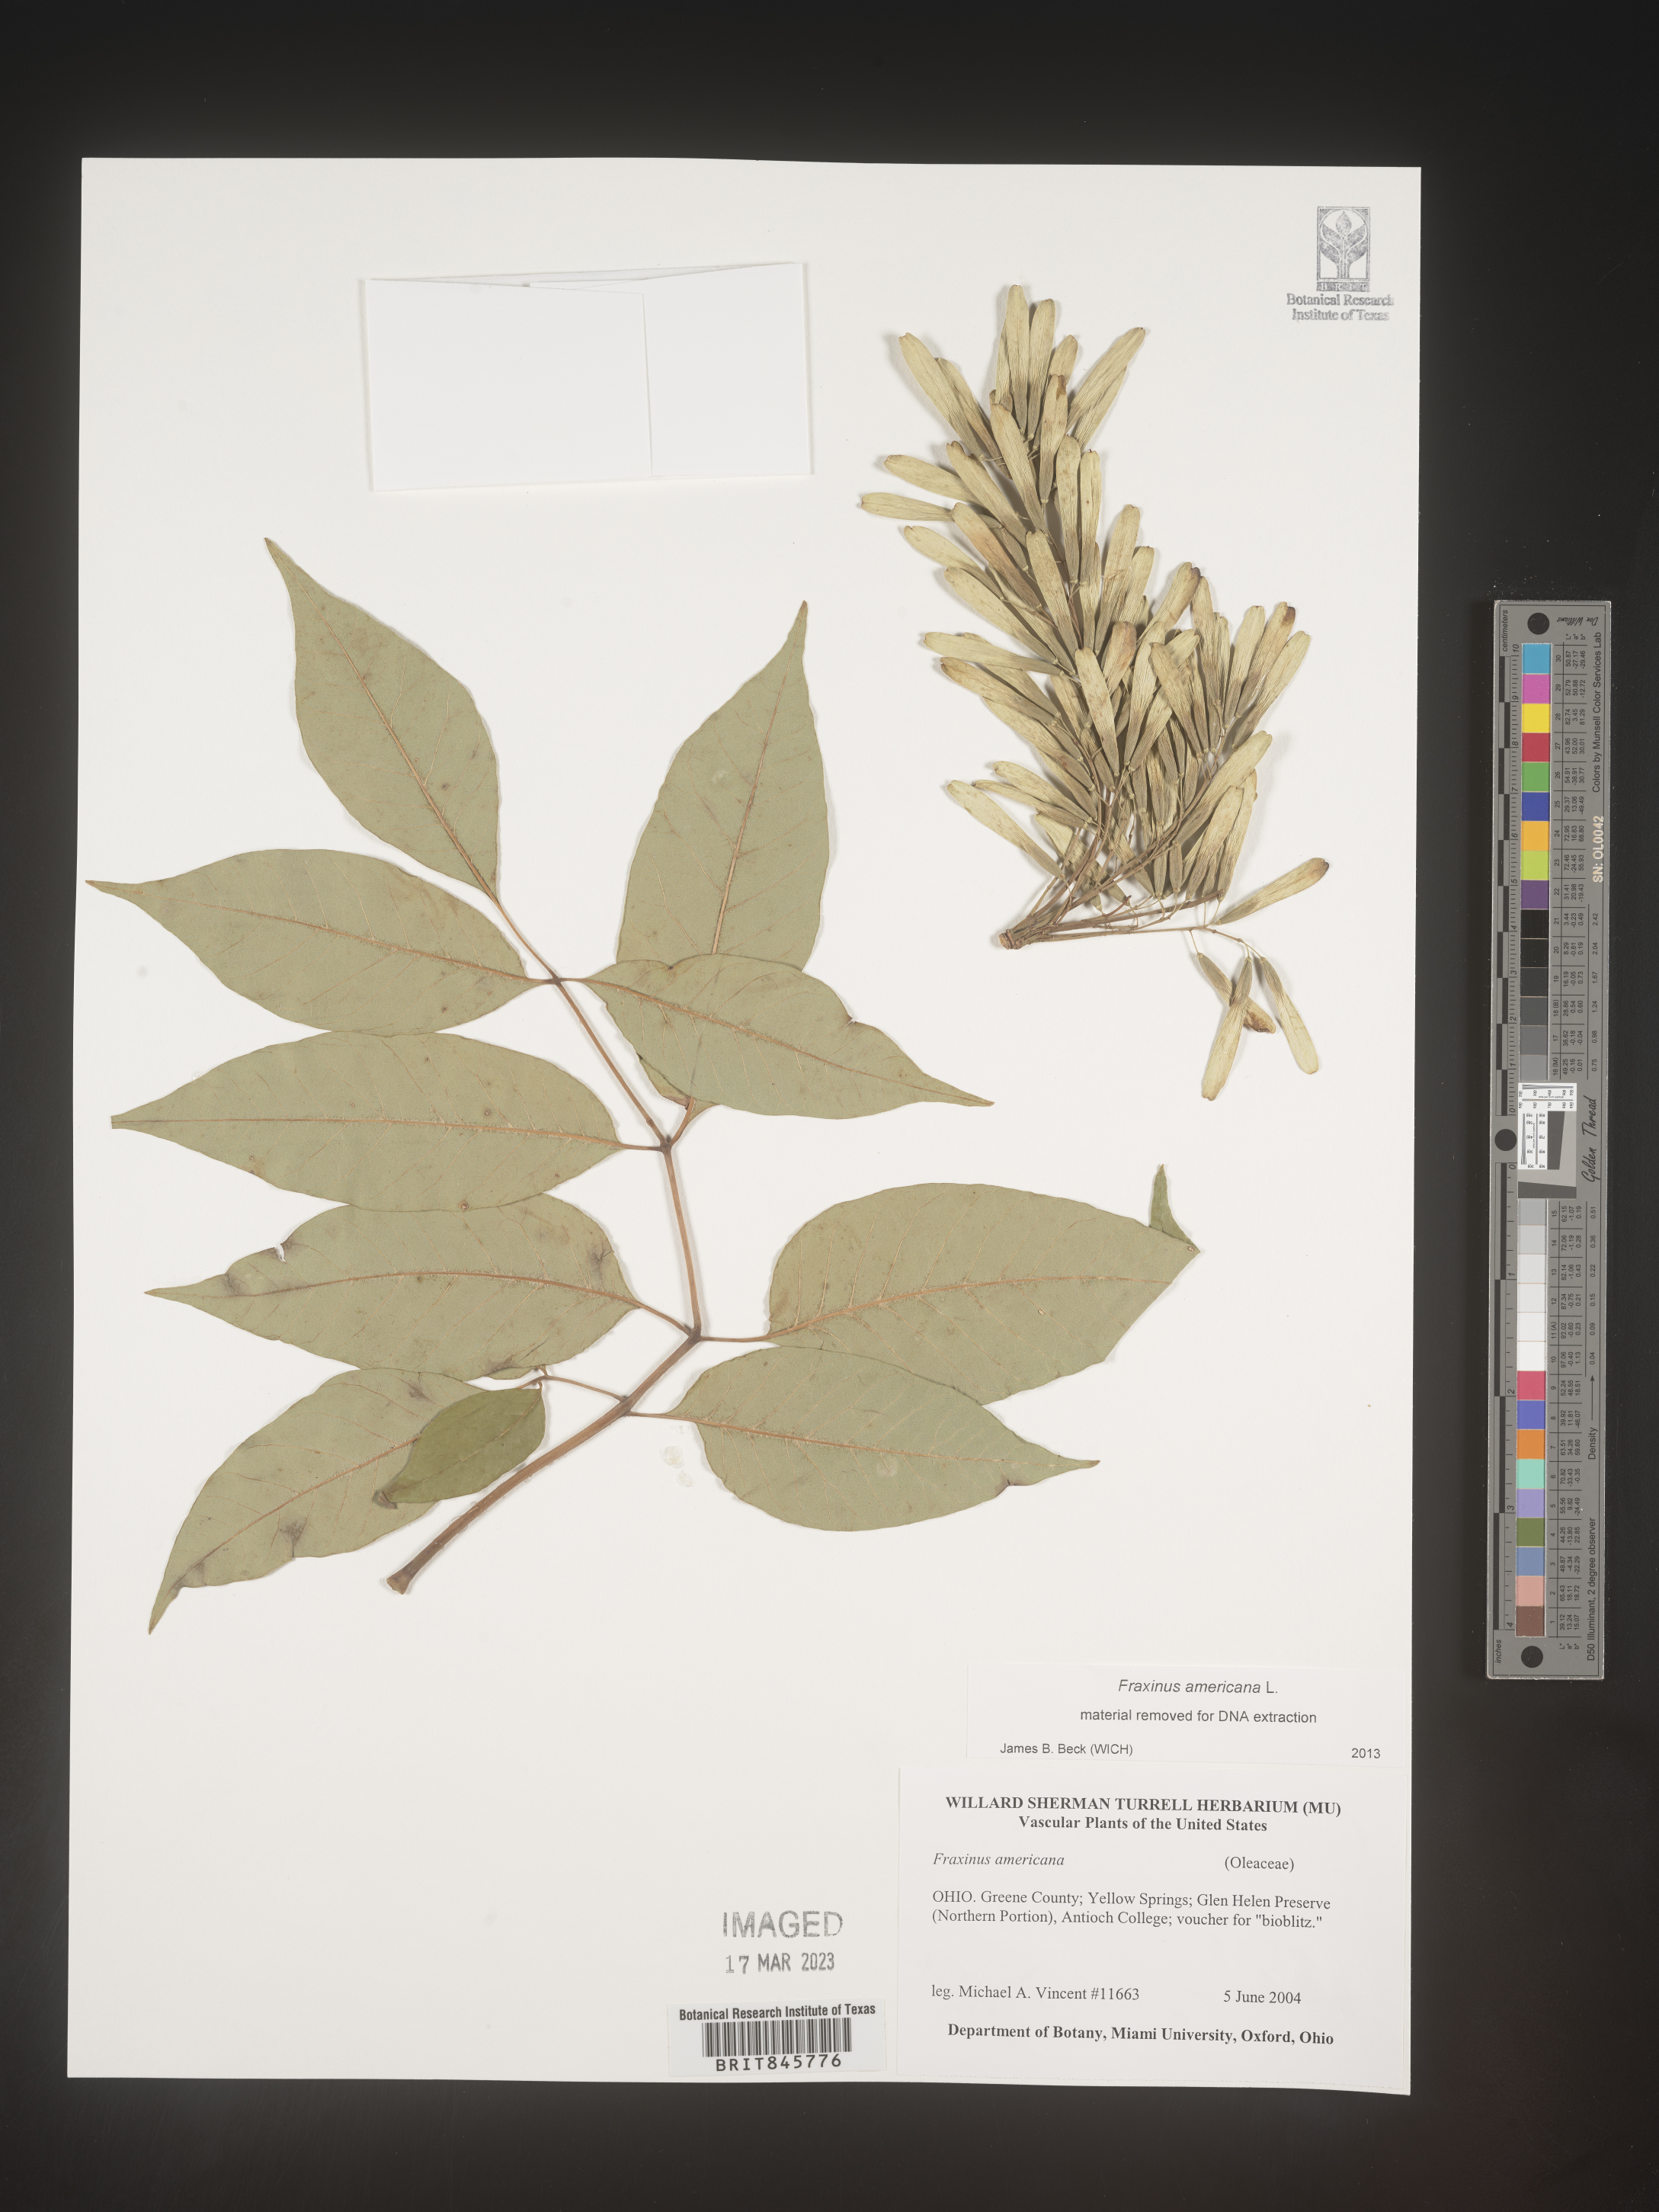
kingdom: Plantae
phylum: Tracheophyta
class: Magnoliopsida
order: Lamiales
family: Oleaceae
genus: Fraxinus
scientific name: Fraxinus americana
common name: White ash
